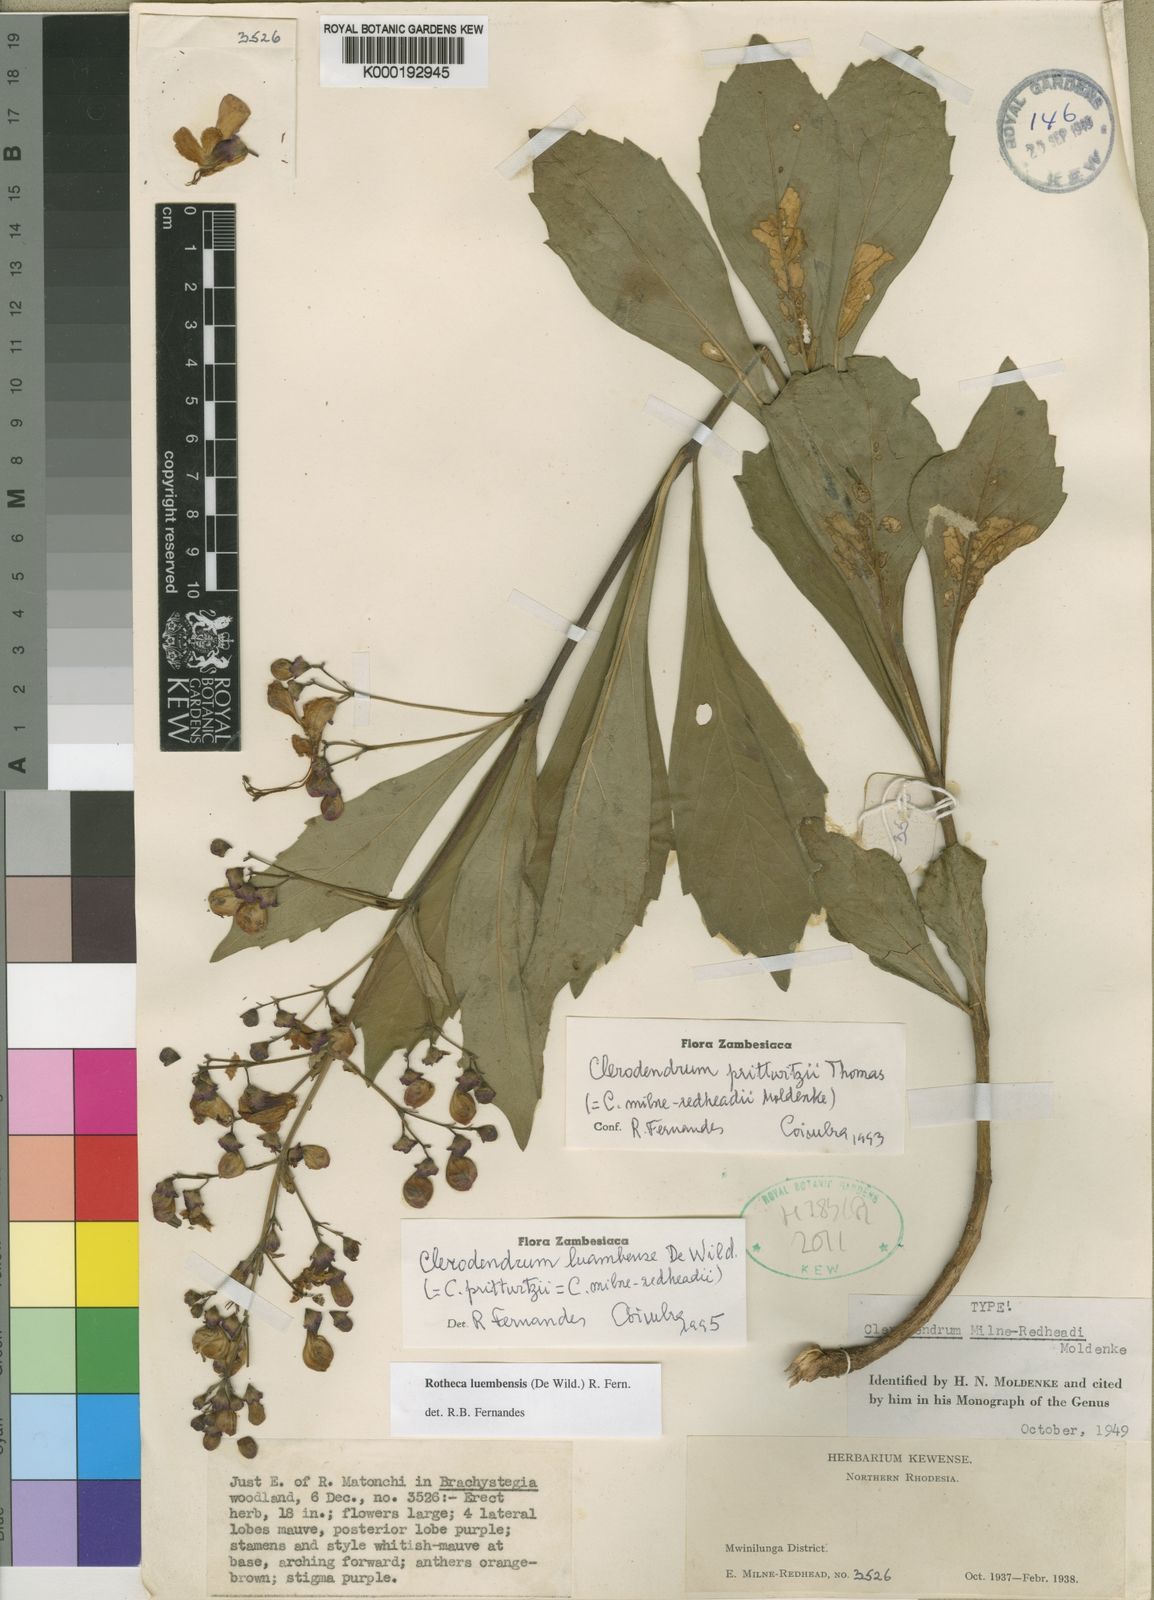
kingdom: Plantae
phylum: Tracheophyta
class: Magnoliopsida
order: Lamiales
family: Lamiaceae
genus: Rotheca
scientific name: Rotheca luembensis
